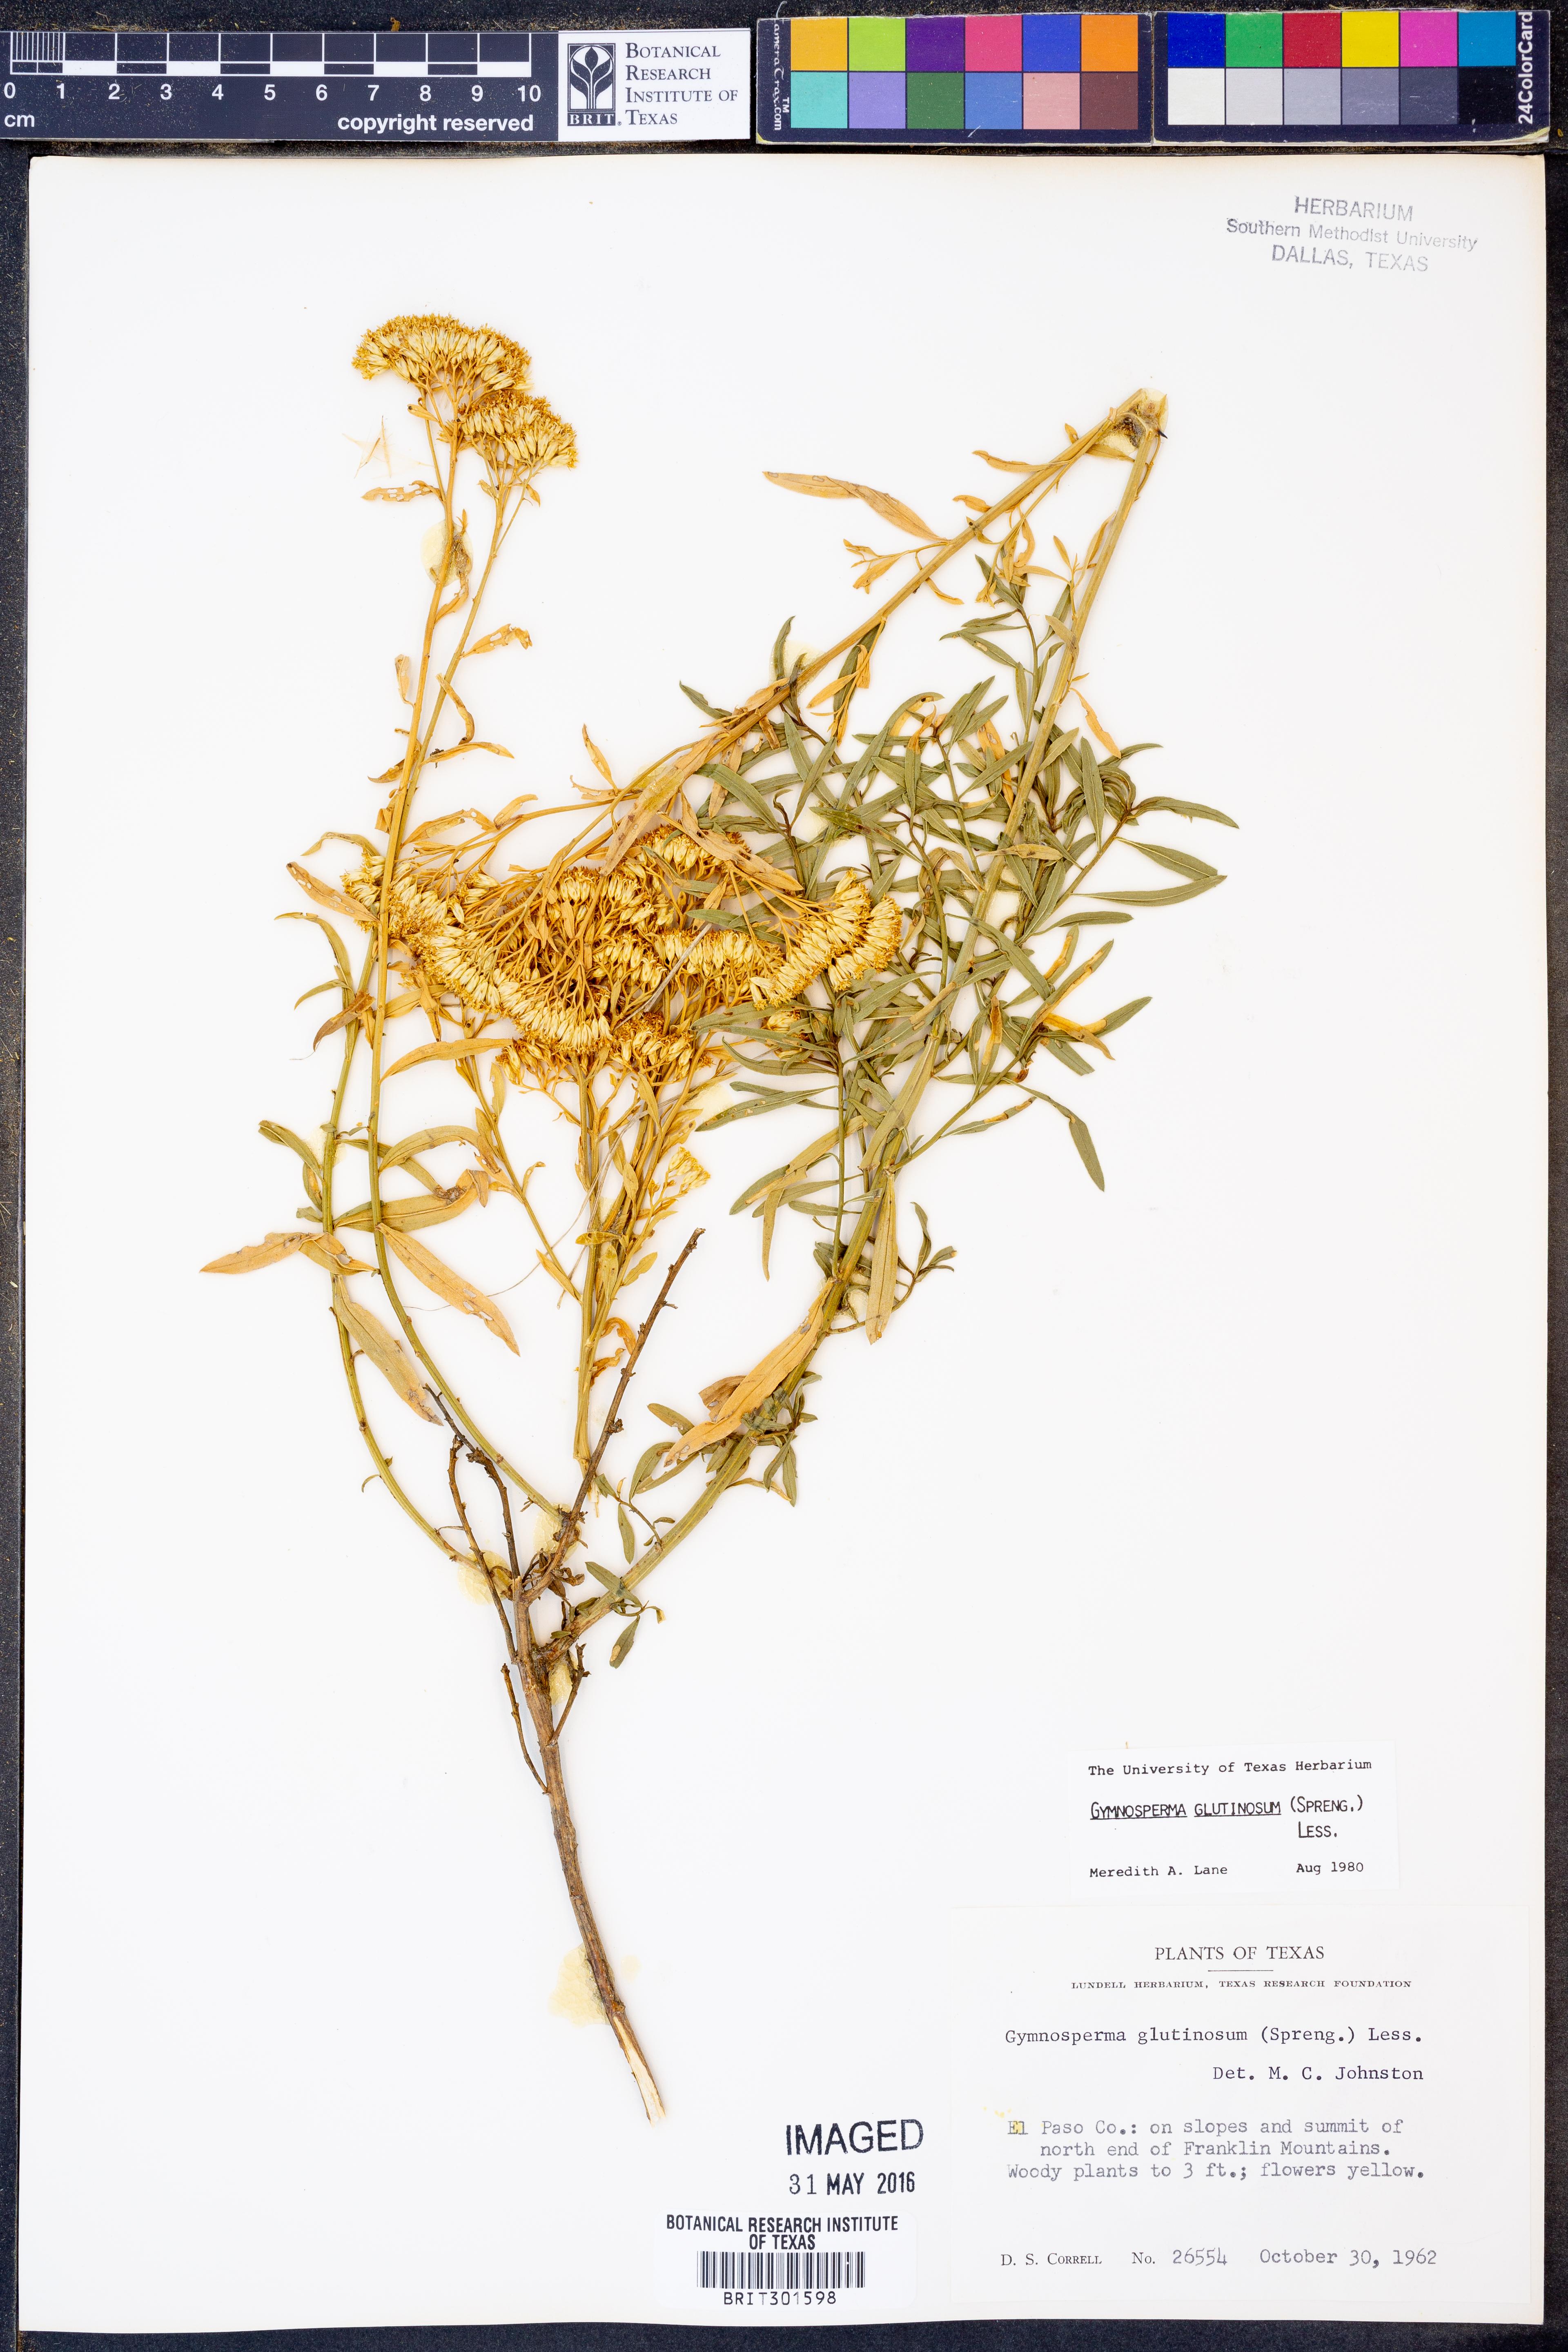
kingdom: Plantae
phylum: Tracheophyta
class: Magnoliopsida
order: Asterales
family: Asteraceae
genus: Gymnosperma
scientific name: Gymnosperma glutinosum
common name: Gumhead
